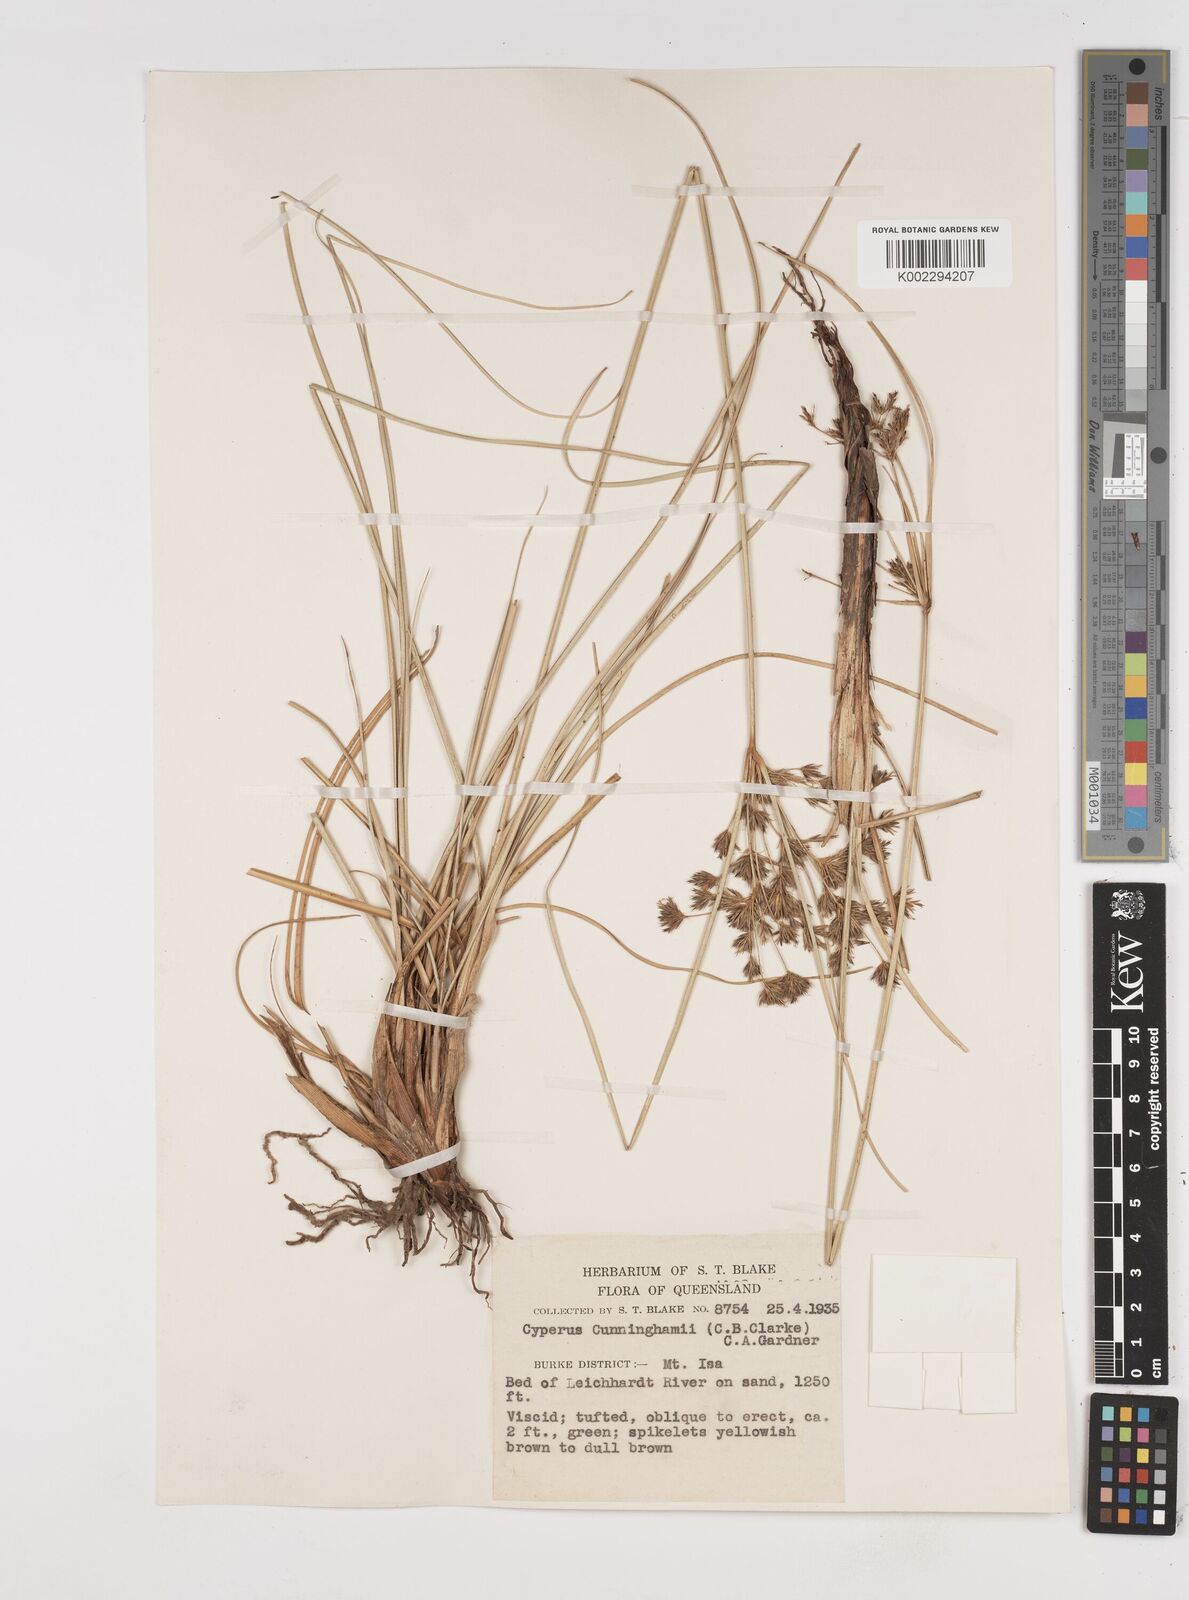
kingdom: Plantae
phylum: Tracheophyta
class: Liliopsida
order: Poales
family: Cyperaceae
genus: Cyperus
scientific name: Cyperus cunninghamii
